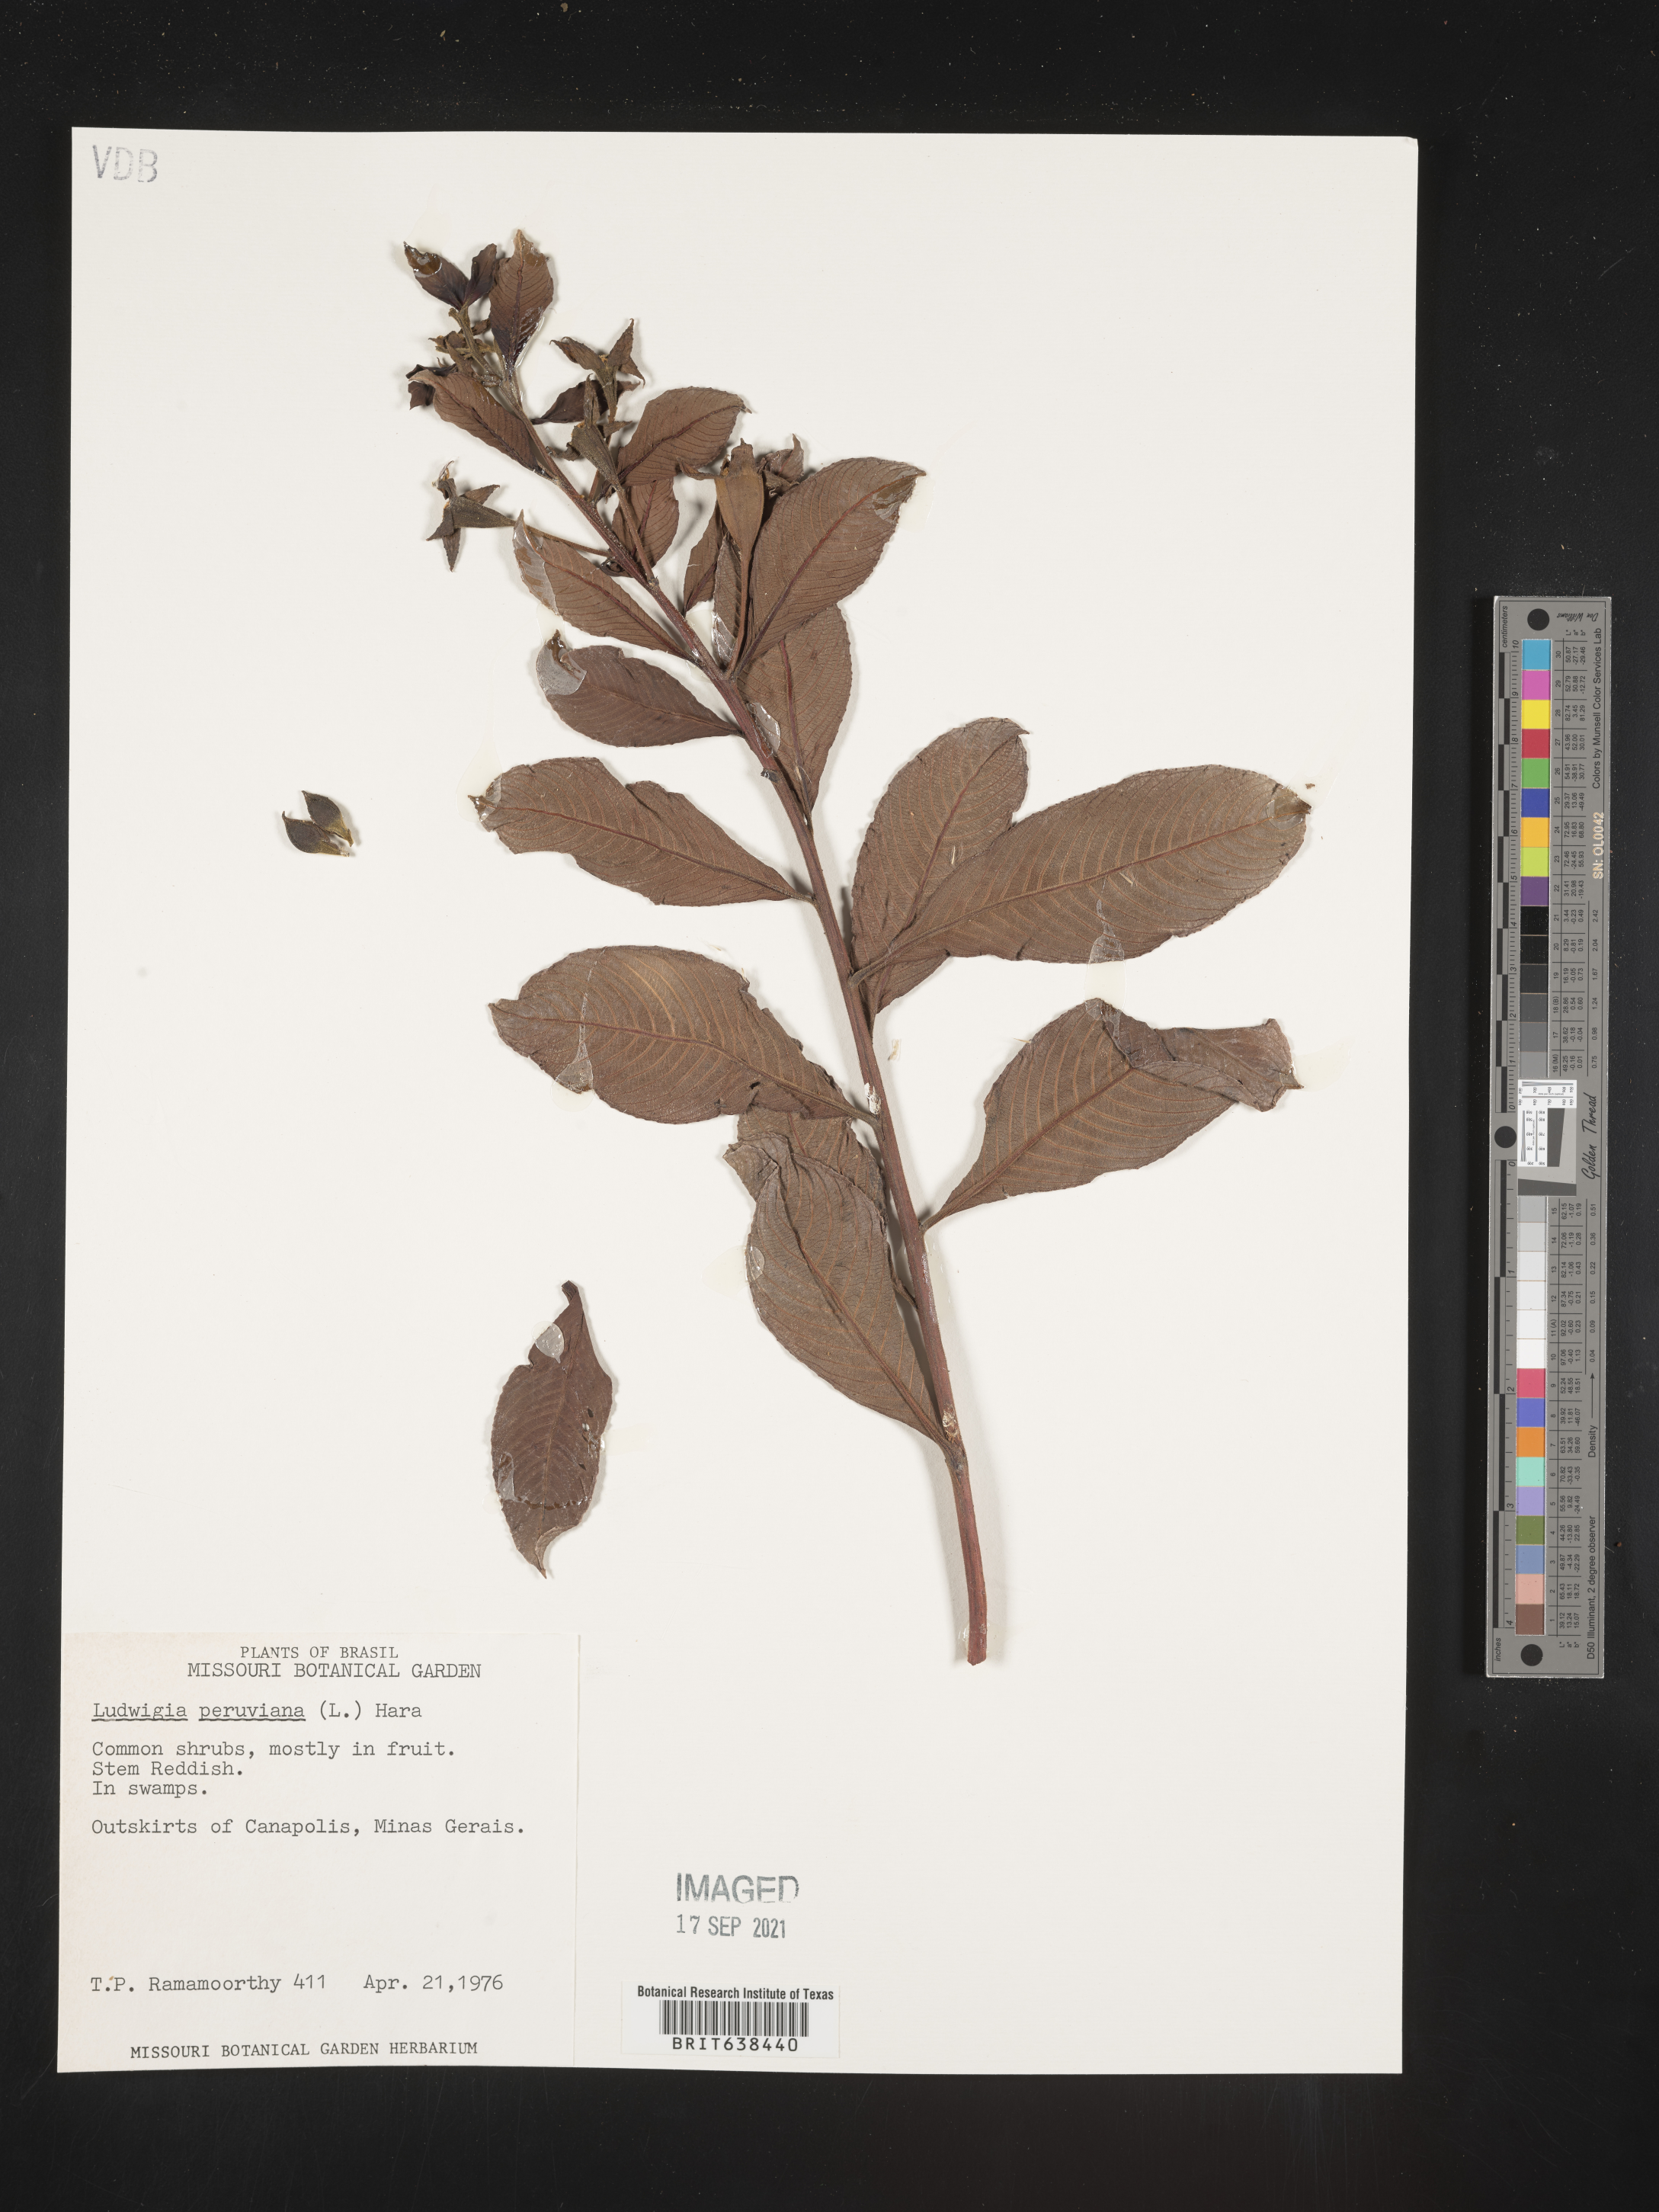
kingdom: Plantae
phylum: Tracheophyta
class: Magnoliopsida
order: Myrtales
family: Onagraceae
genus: Ludwigia
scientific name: Ludwigia
